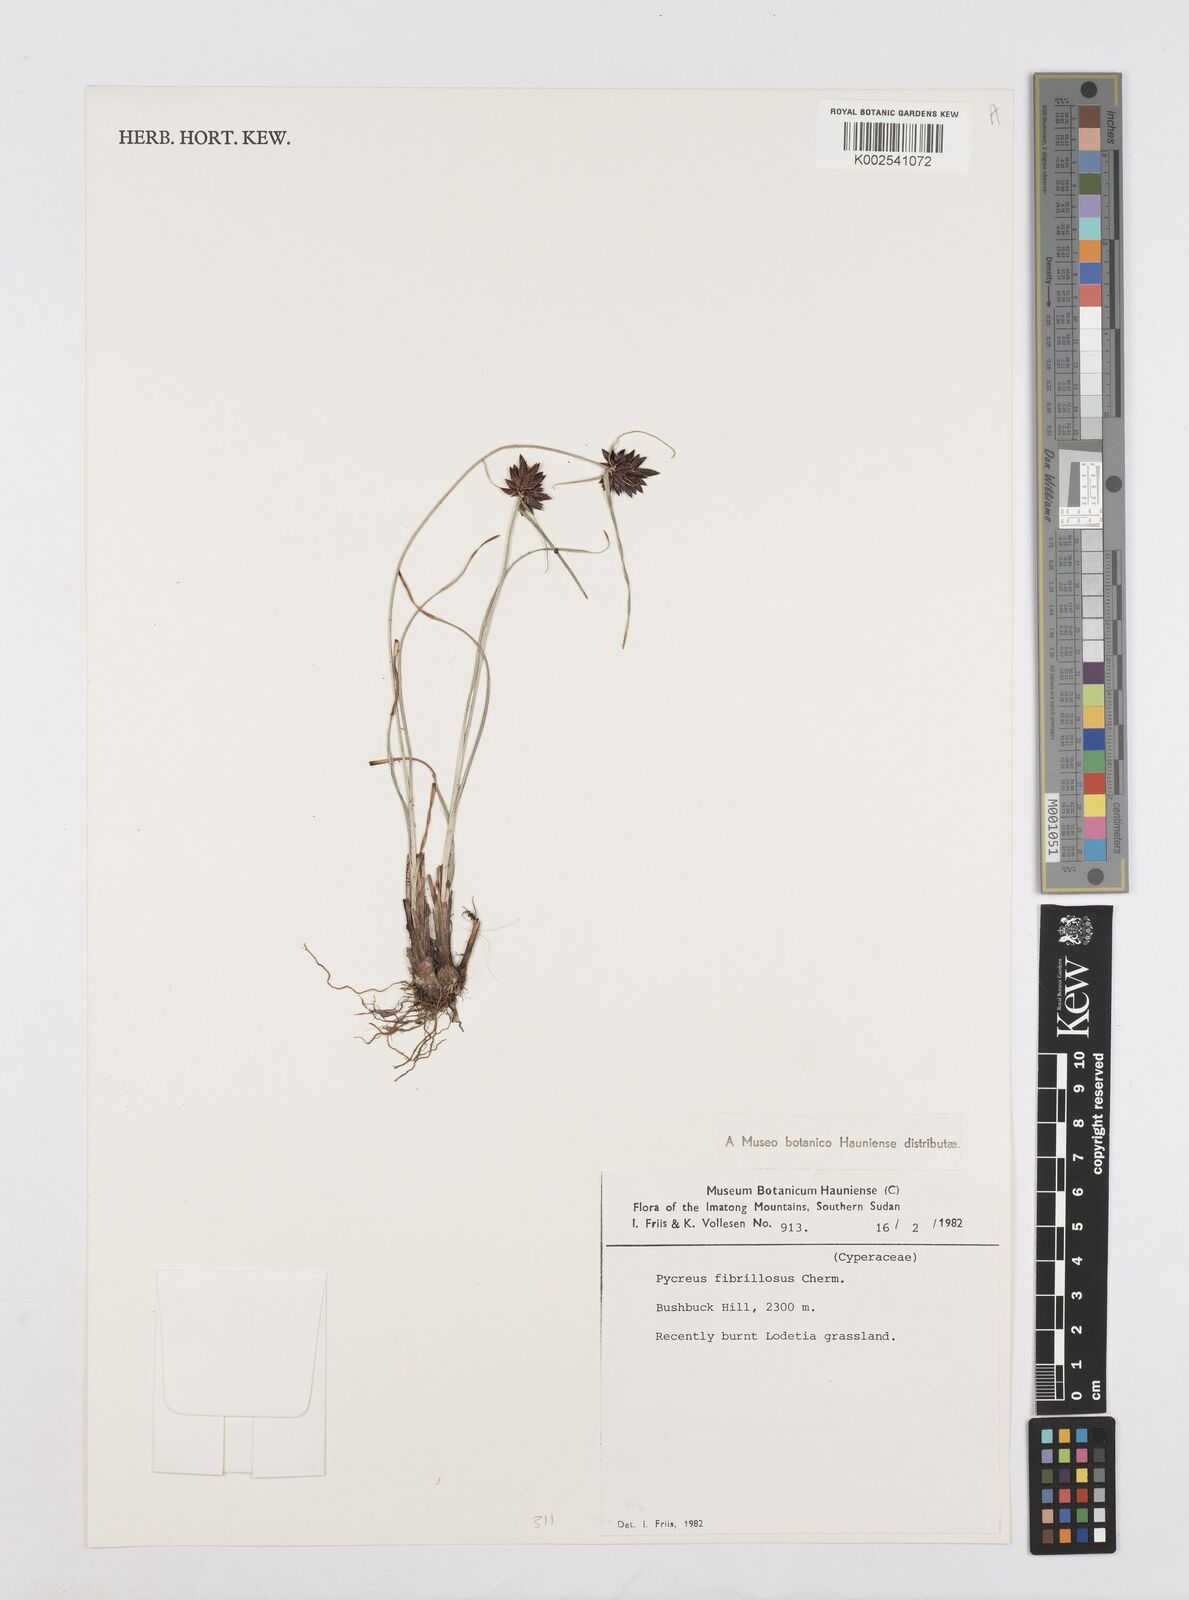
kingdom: Plantae
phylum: Tracheophyta
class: Liliopsida
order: Poales
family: Cyperaceae
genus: Cyperus
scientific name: Cyperus nigricans
